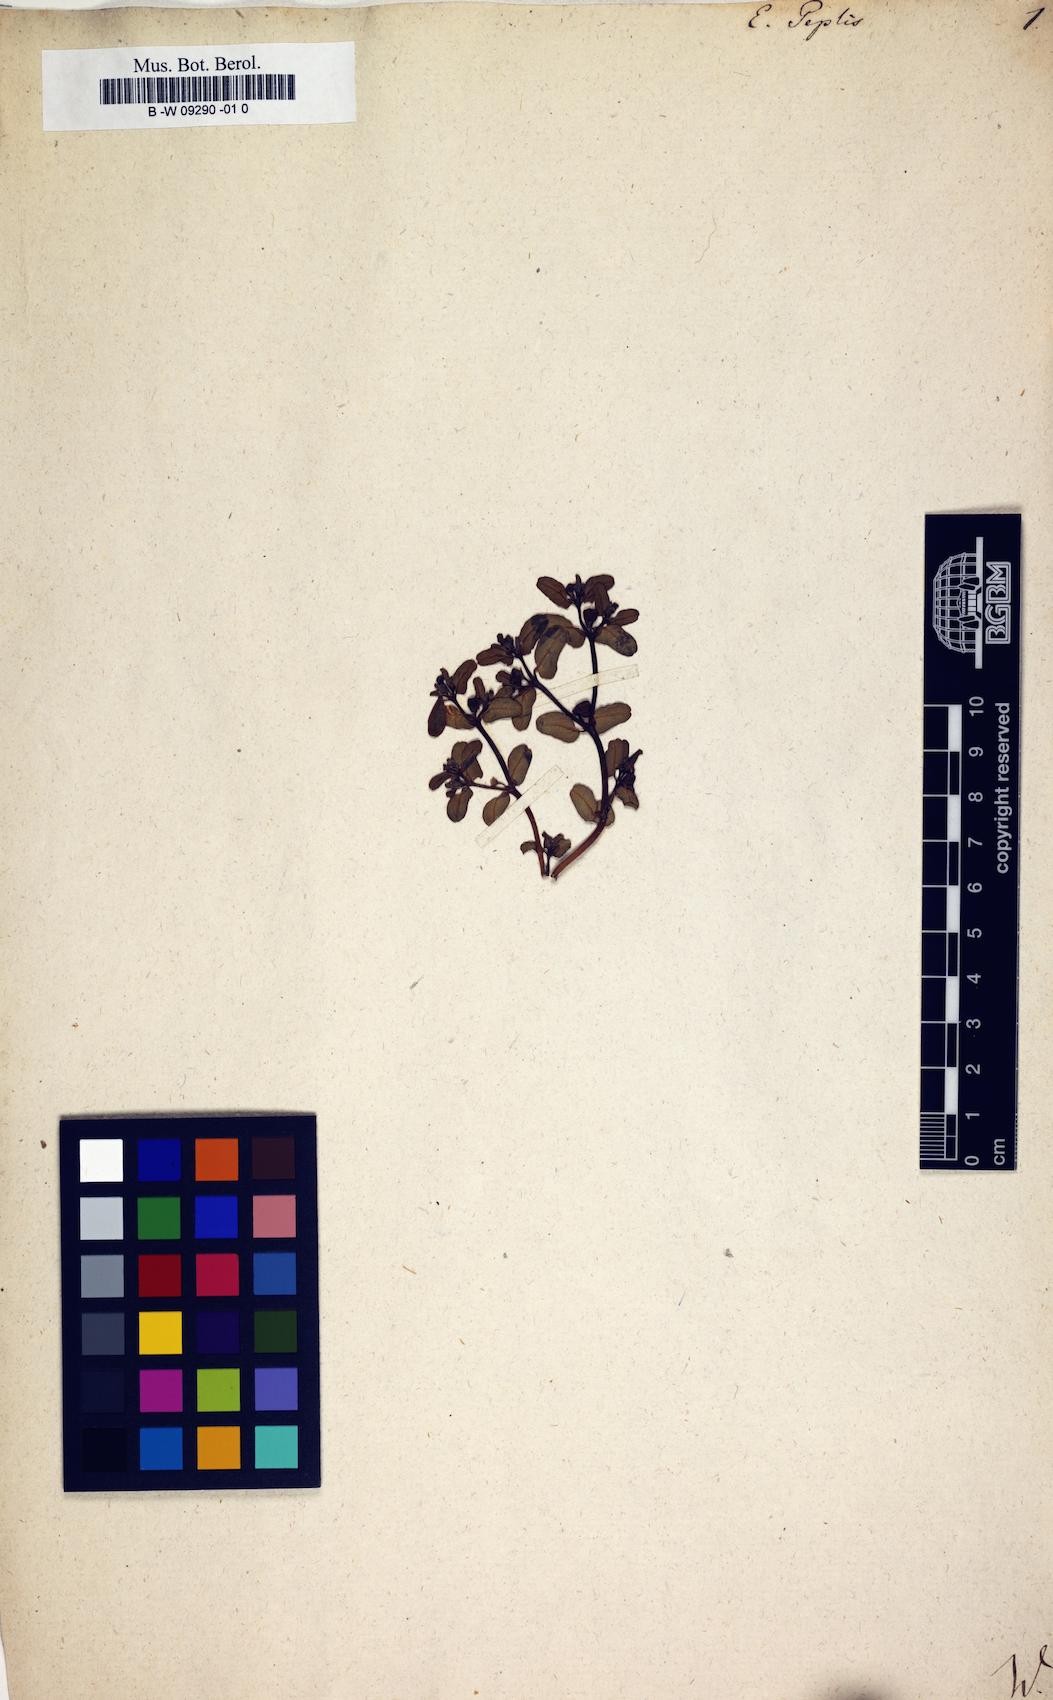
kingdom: Plantae
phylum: Tracheophyta
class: Magnoliopsida
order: Malpighiales
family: Euphorbiaceae
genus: Euphorbia
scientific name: Euphorbia peplis
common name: Purple spurge
